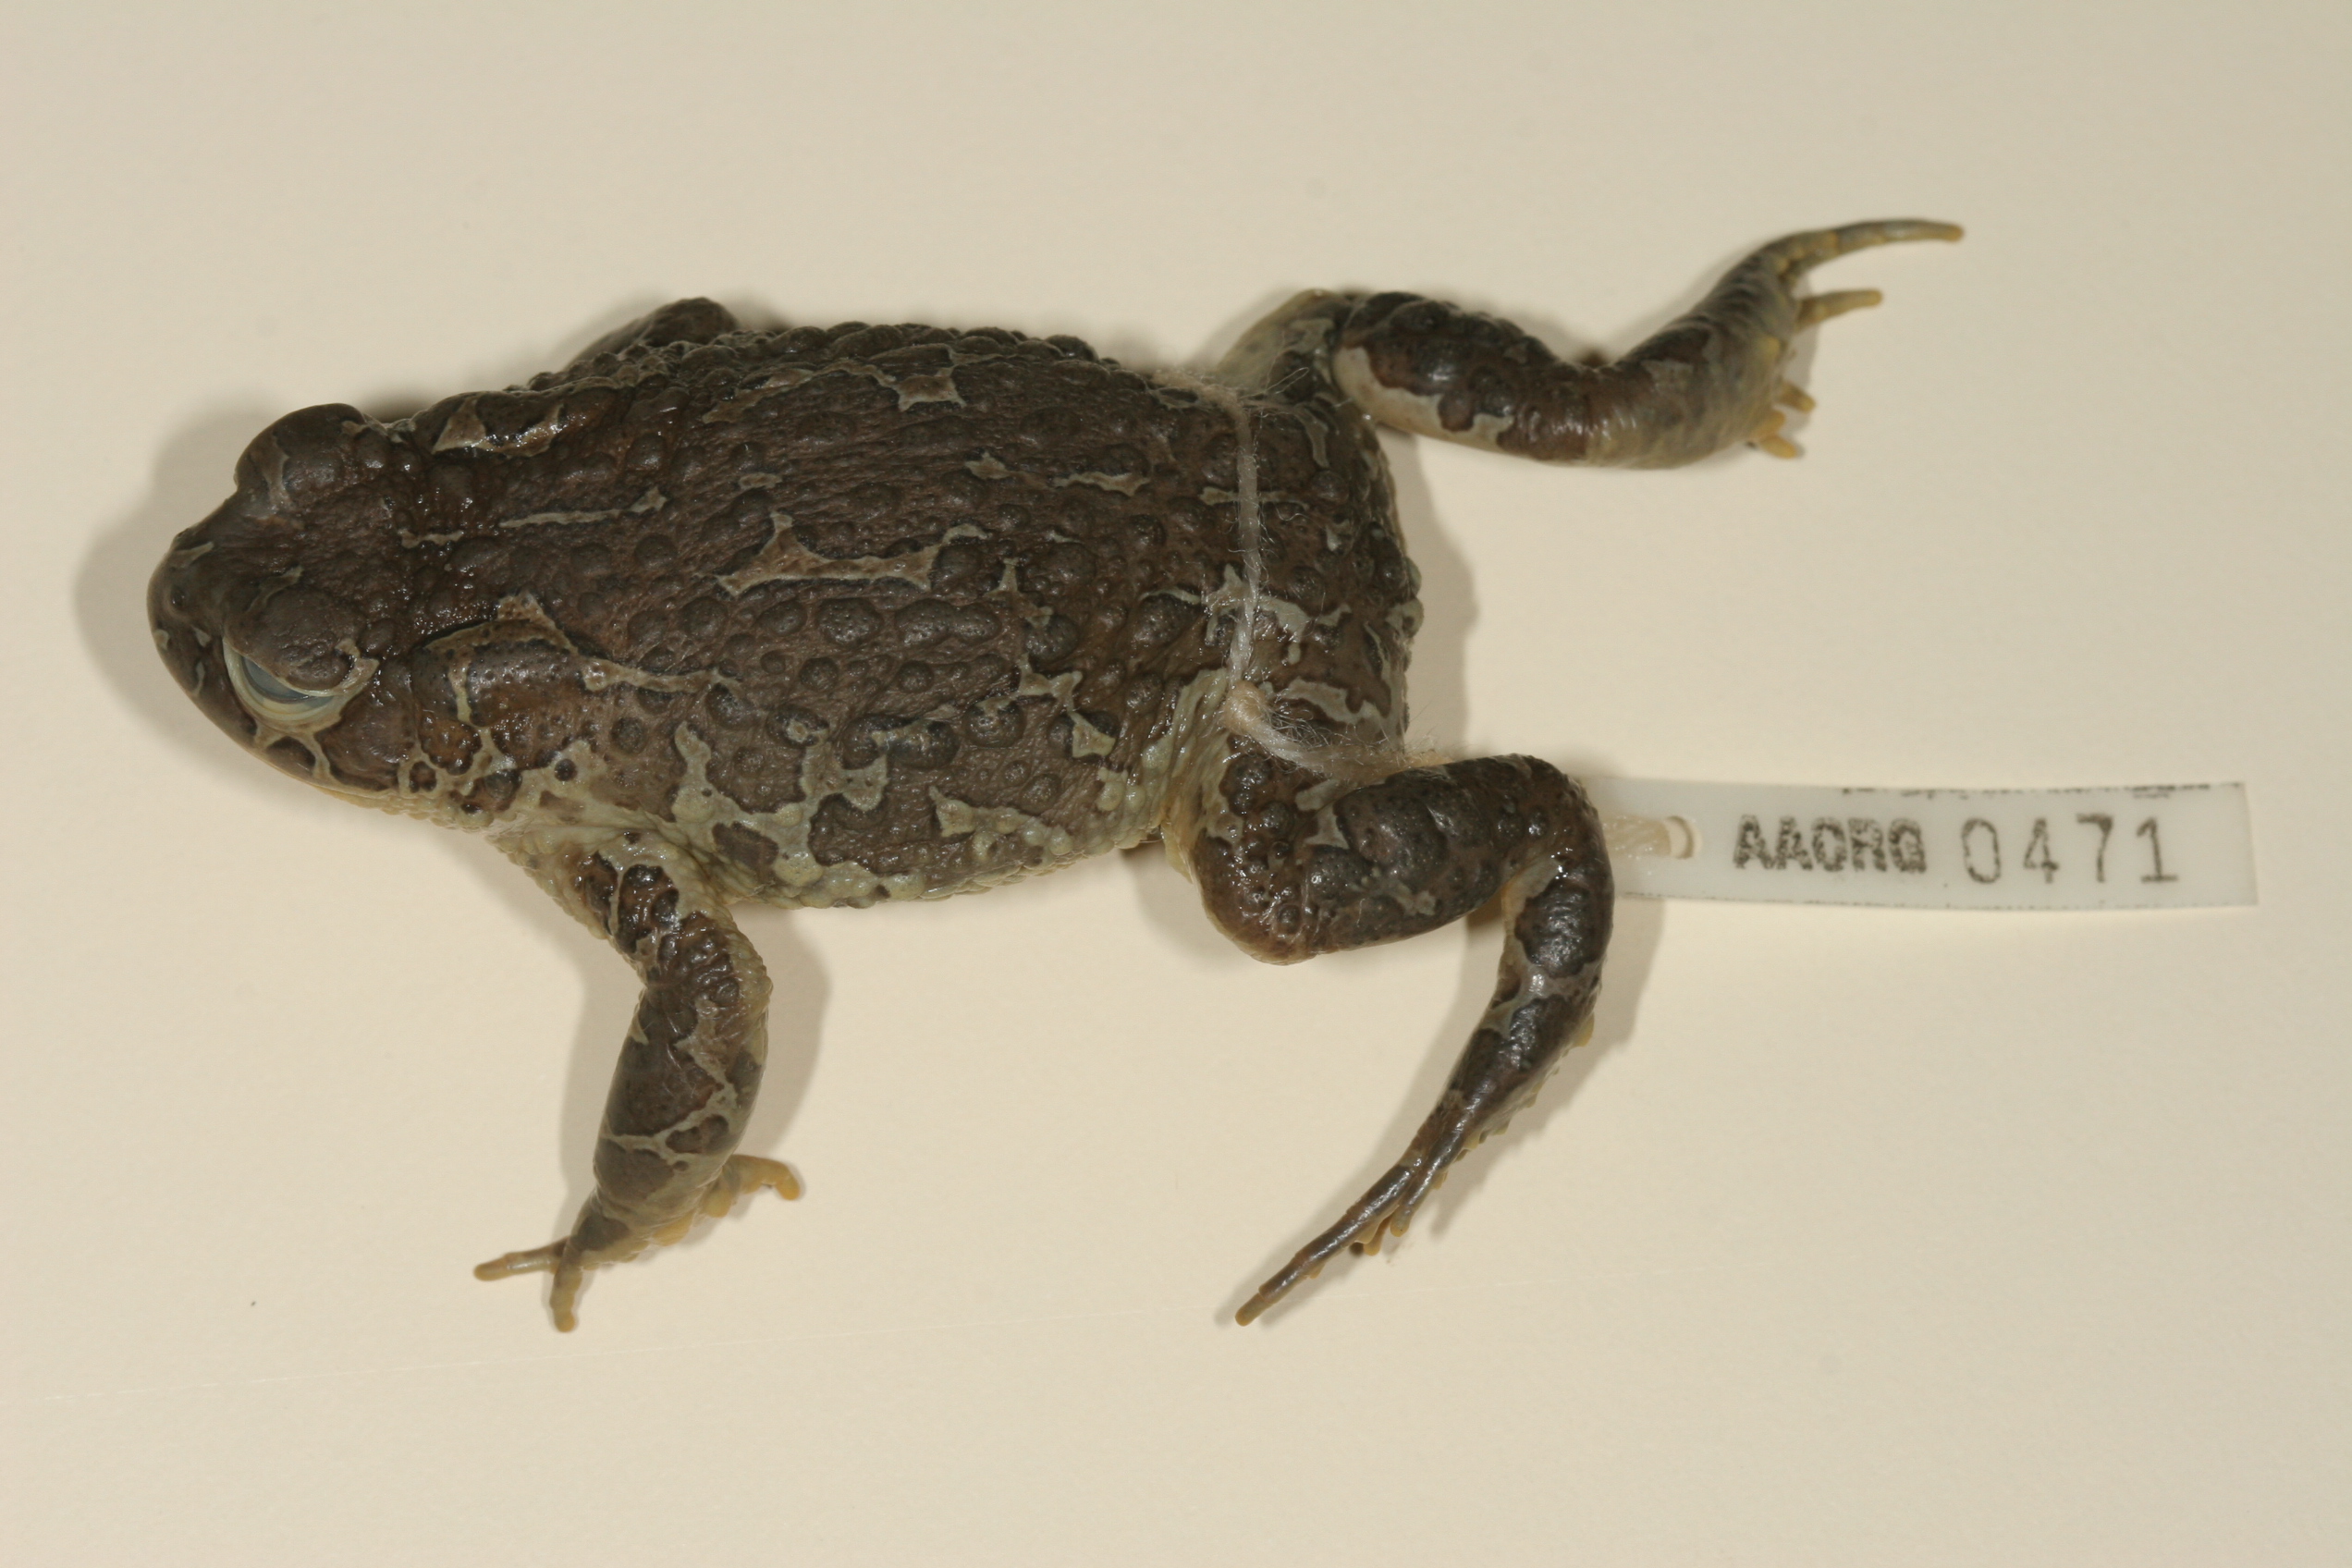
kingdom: Animalia
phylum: Chordata
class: Amphibia
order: Anura
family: Bufonidae
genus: Vandijkophrynus
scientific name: Vandijkophrynus gariepensis
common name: Gariep toad
